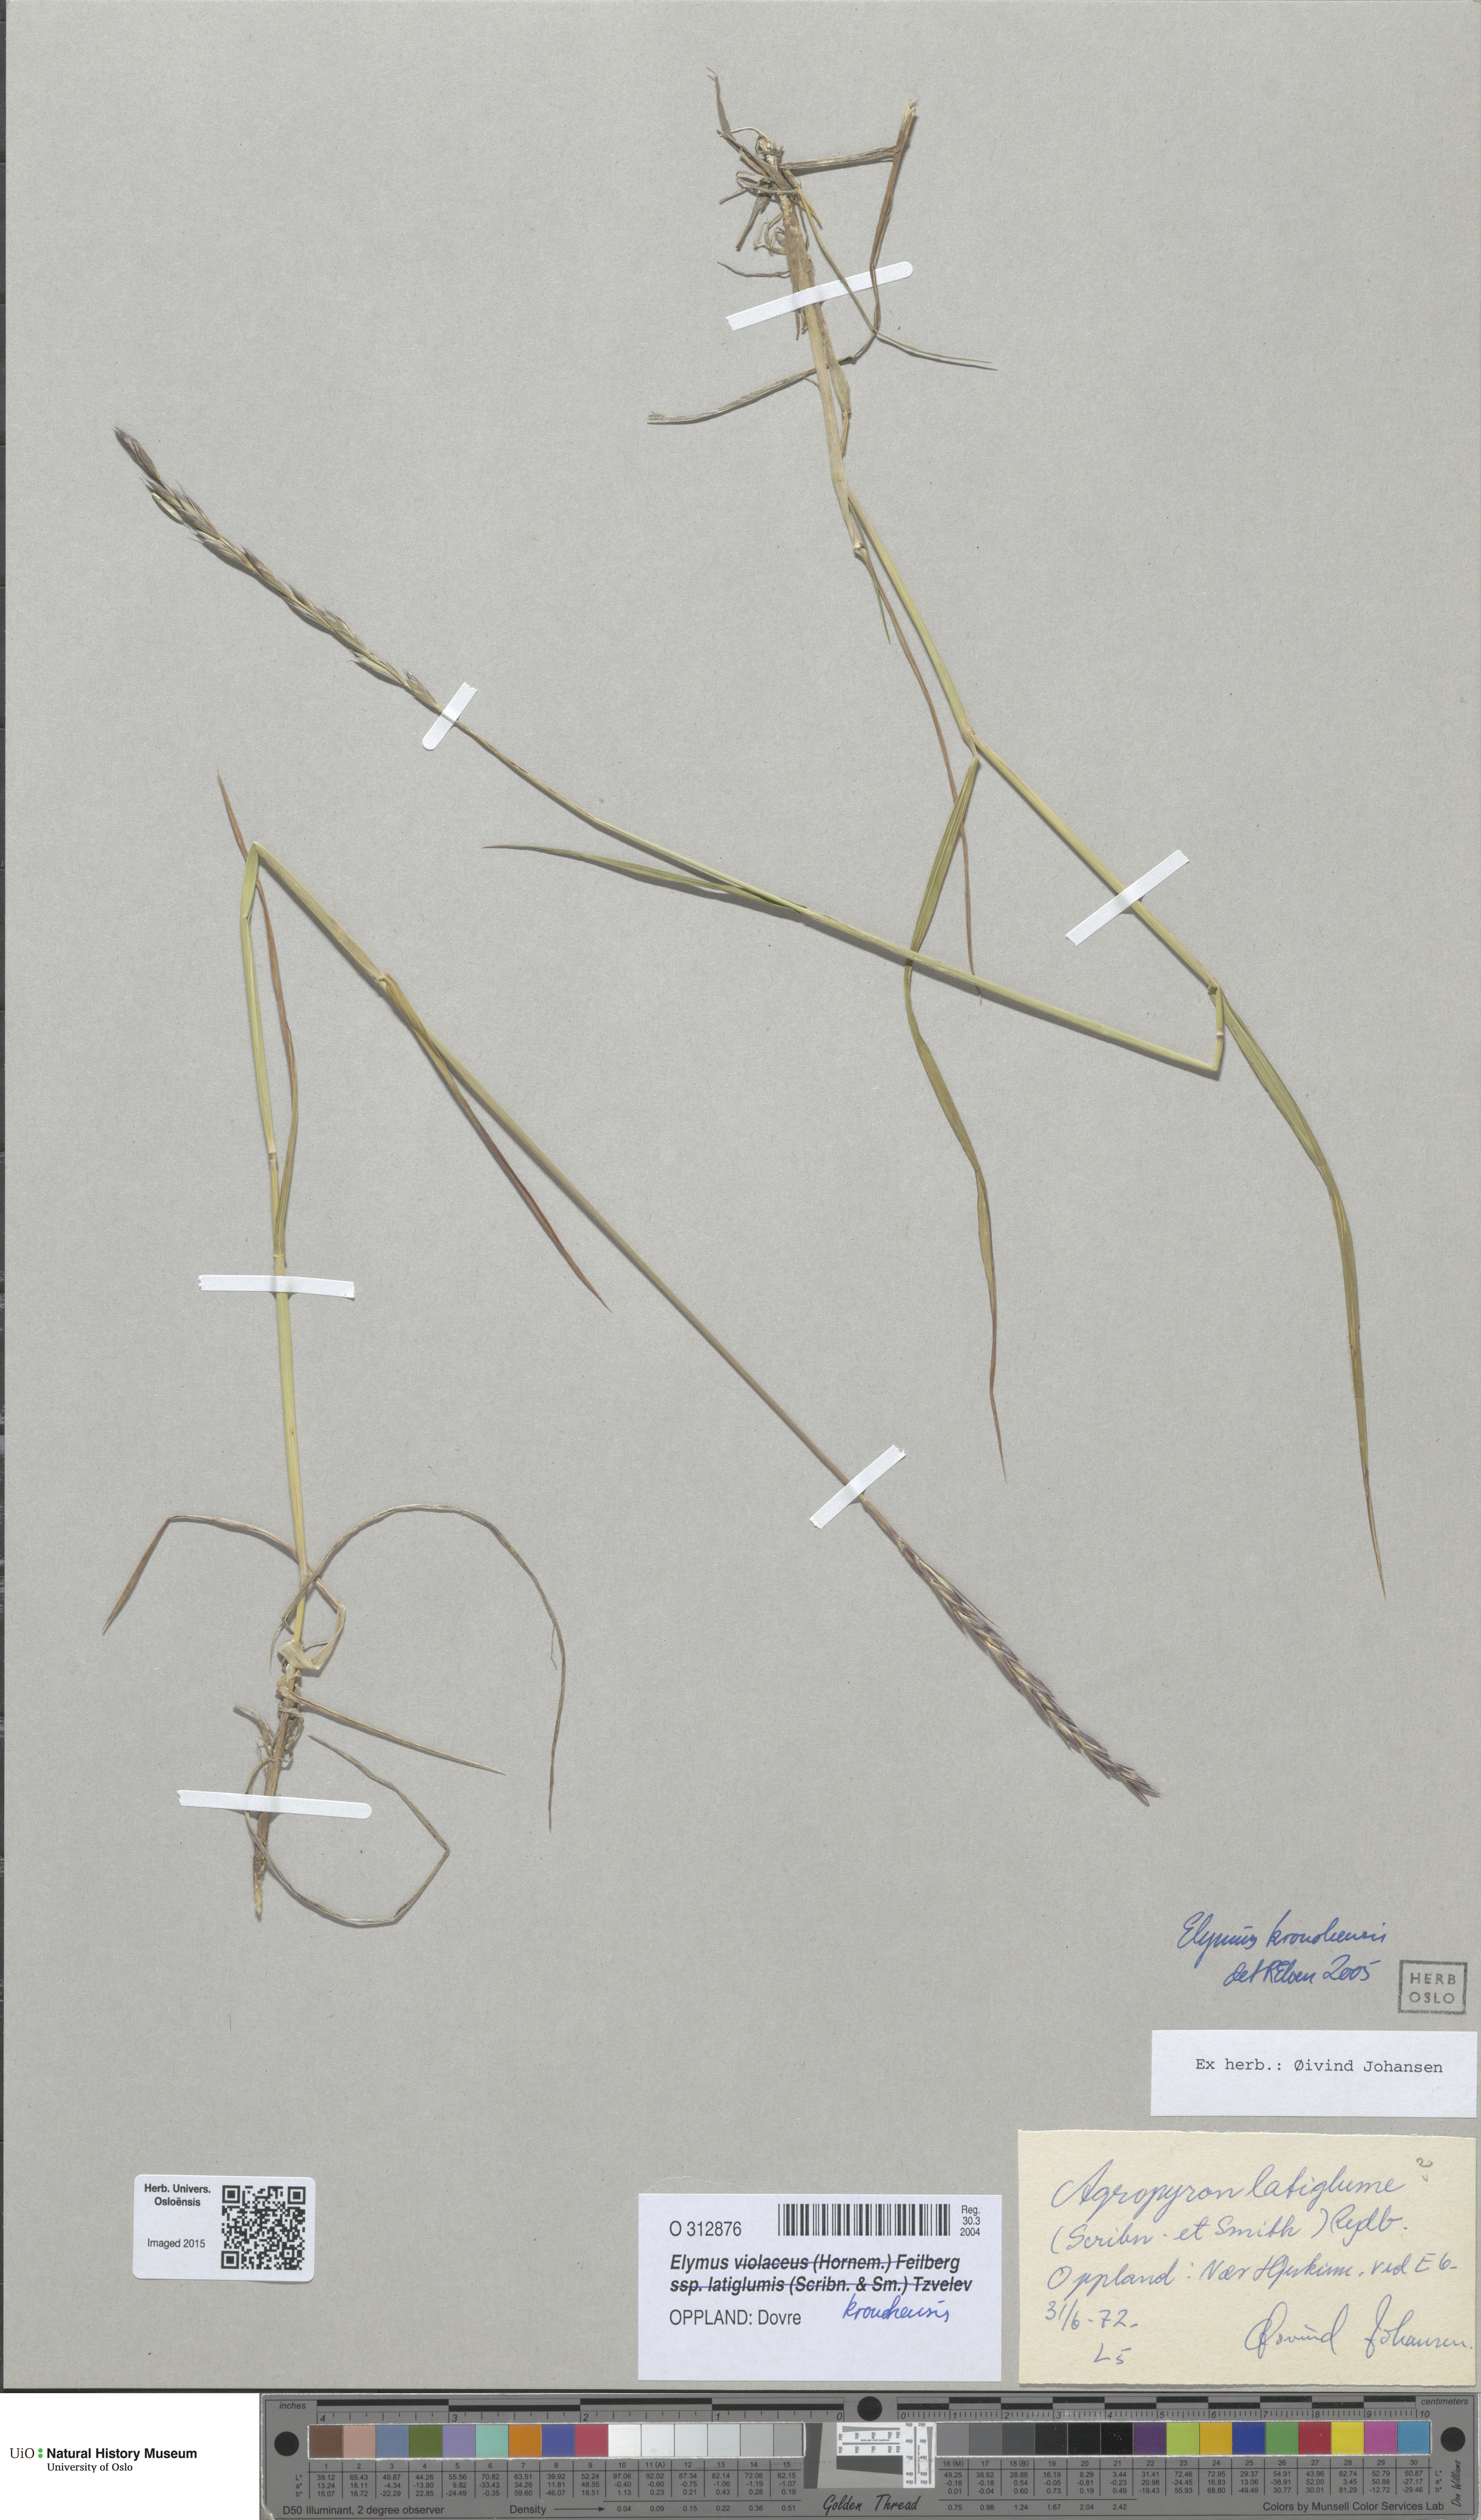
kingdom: Plantae
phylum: Tracheophyta
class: Liliopsida
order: Poales
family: Poaceae
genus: Elymus
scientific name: Elymus alaskanus
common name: Alaska wheatgrass
